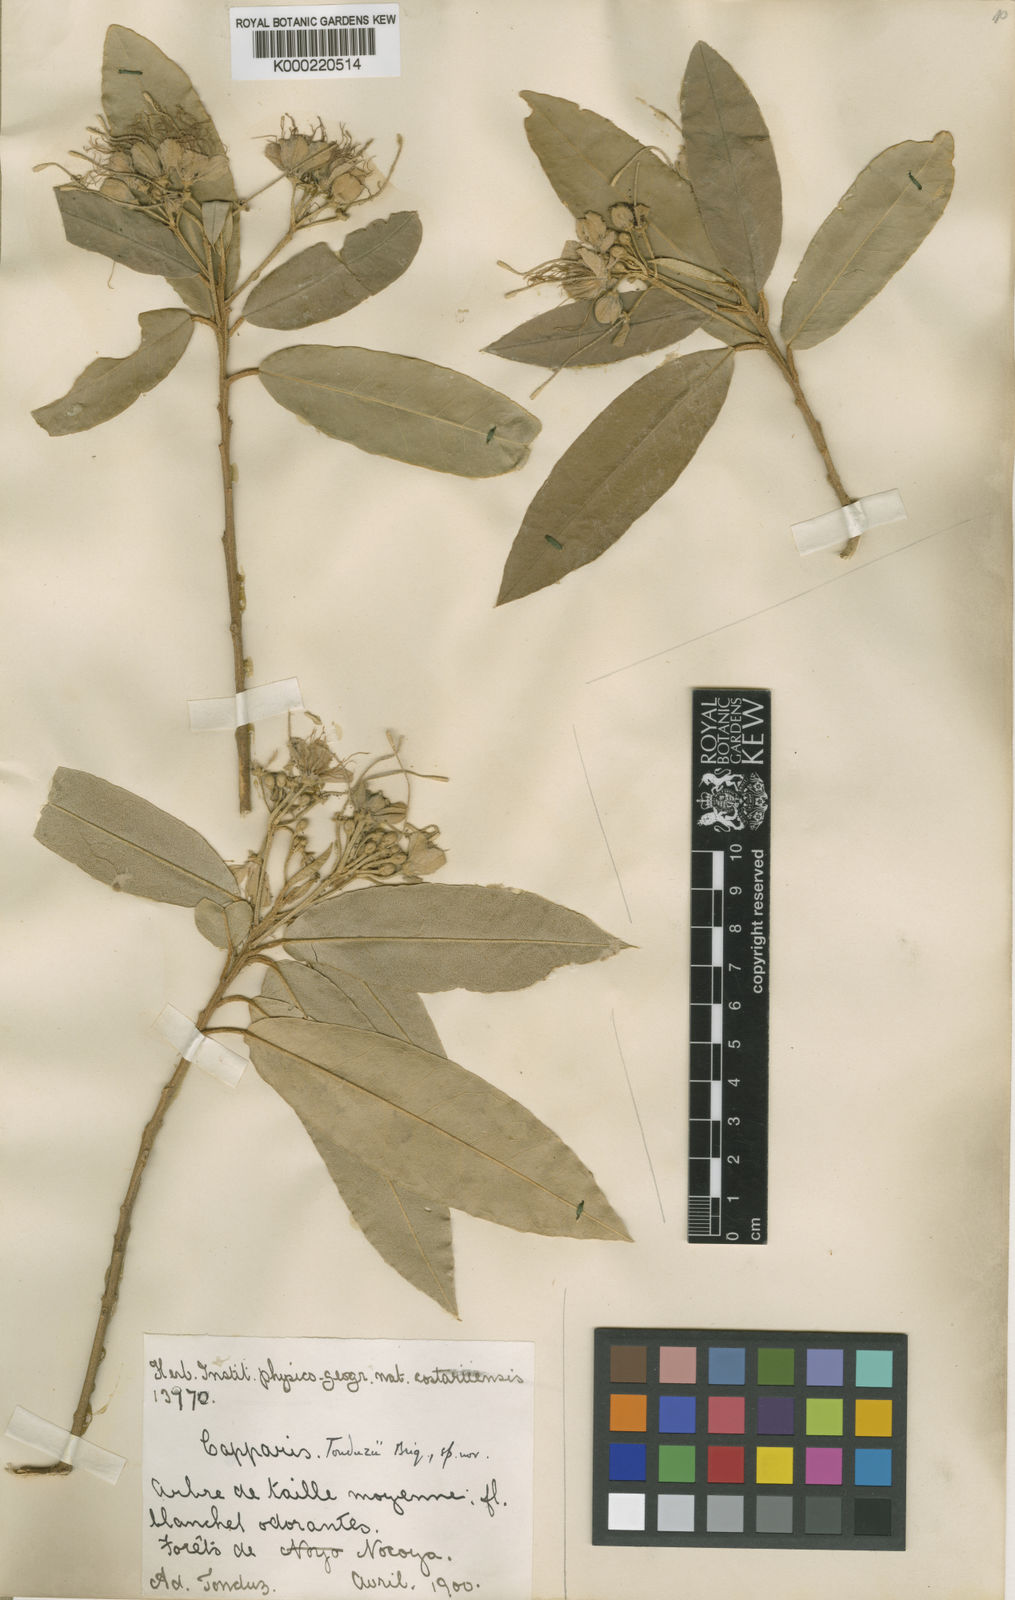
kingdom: Plantae
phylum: Tracheophyta
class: Magnoliopsida
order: Brassicales
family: Capparaceae
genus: Quadrella
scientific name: Quadrella indica
